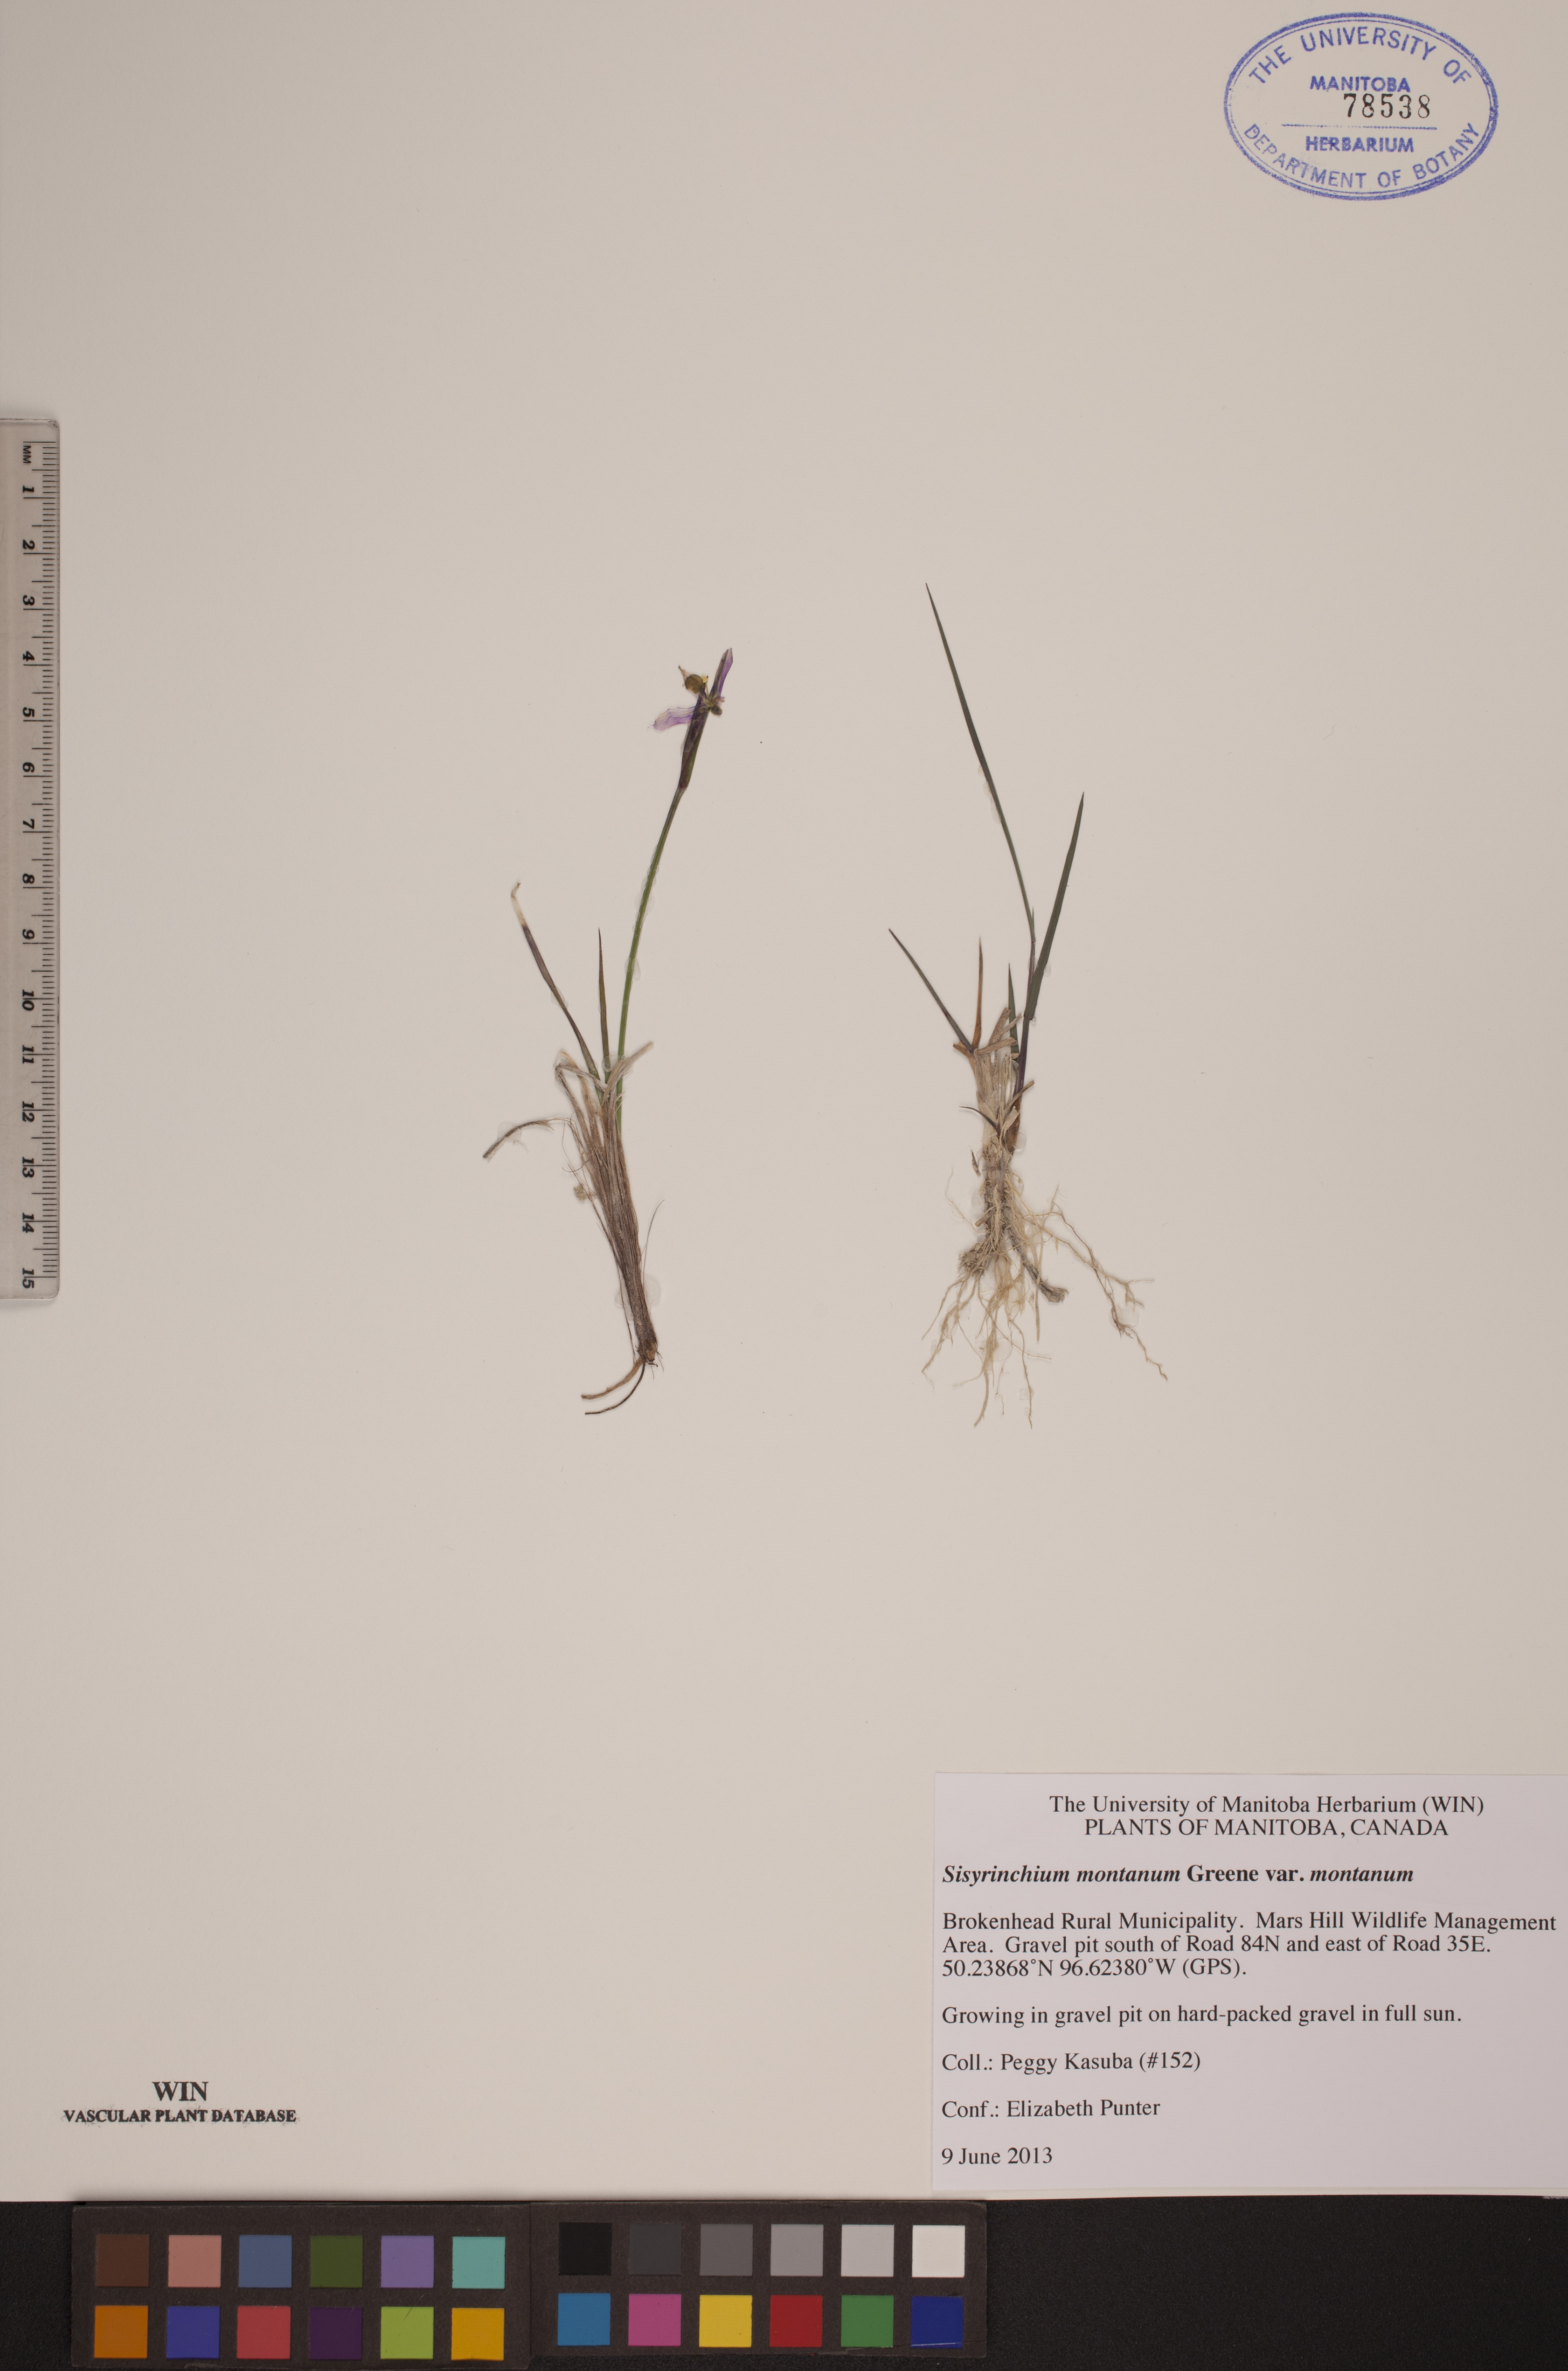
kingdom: Plantae
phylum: Tracheophyta
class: Liliopsida
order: Asparagales
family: Iridaceae
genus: Sisyrinchium
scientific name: Sisyrinchium montanum
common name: American blue-eyed-grass
